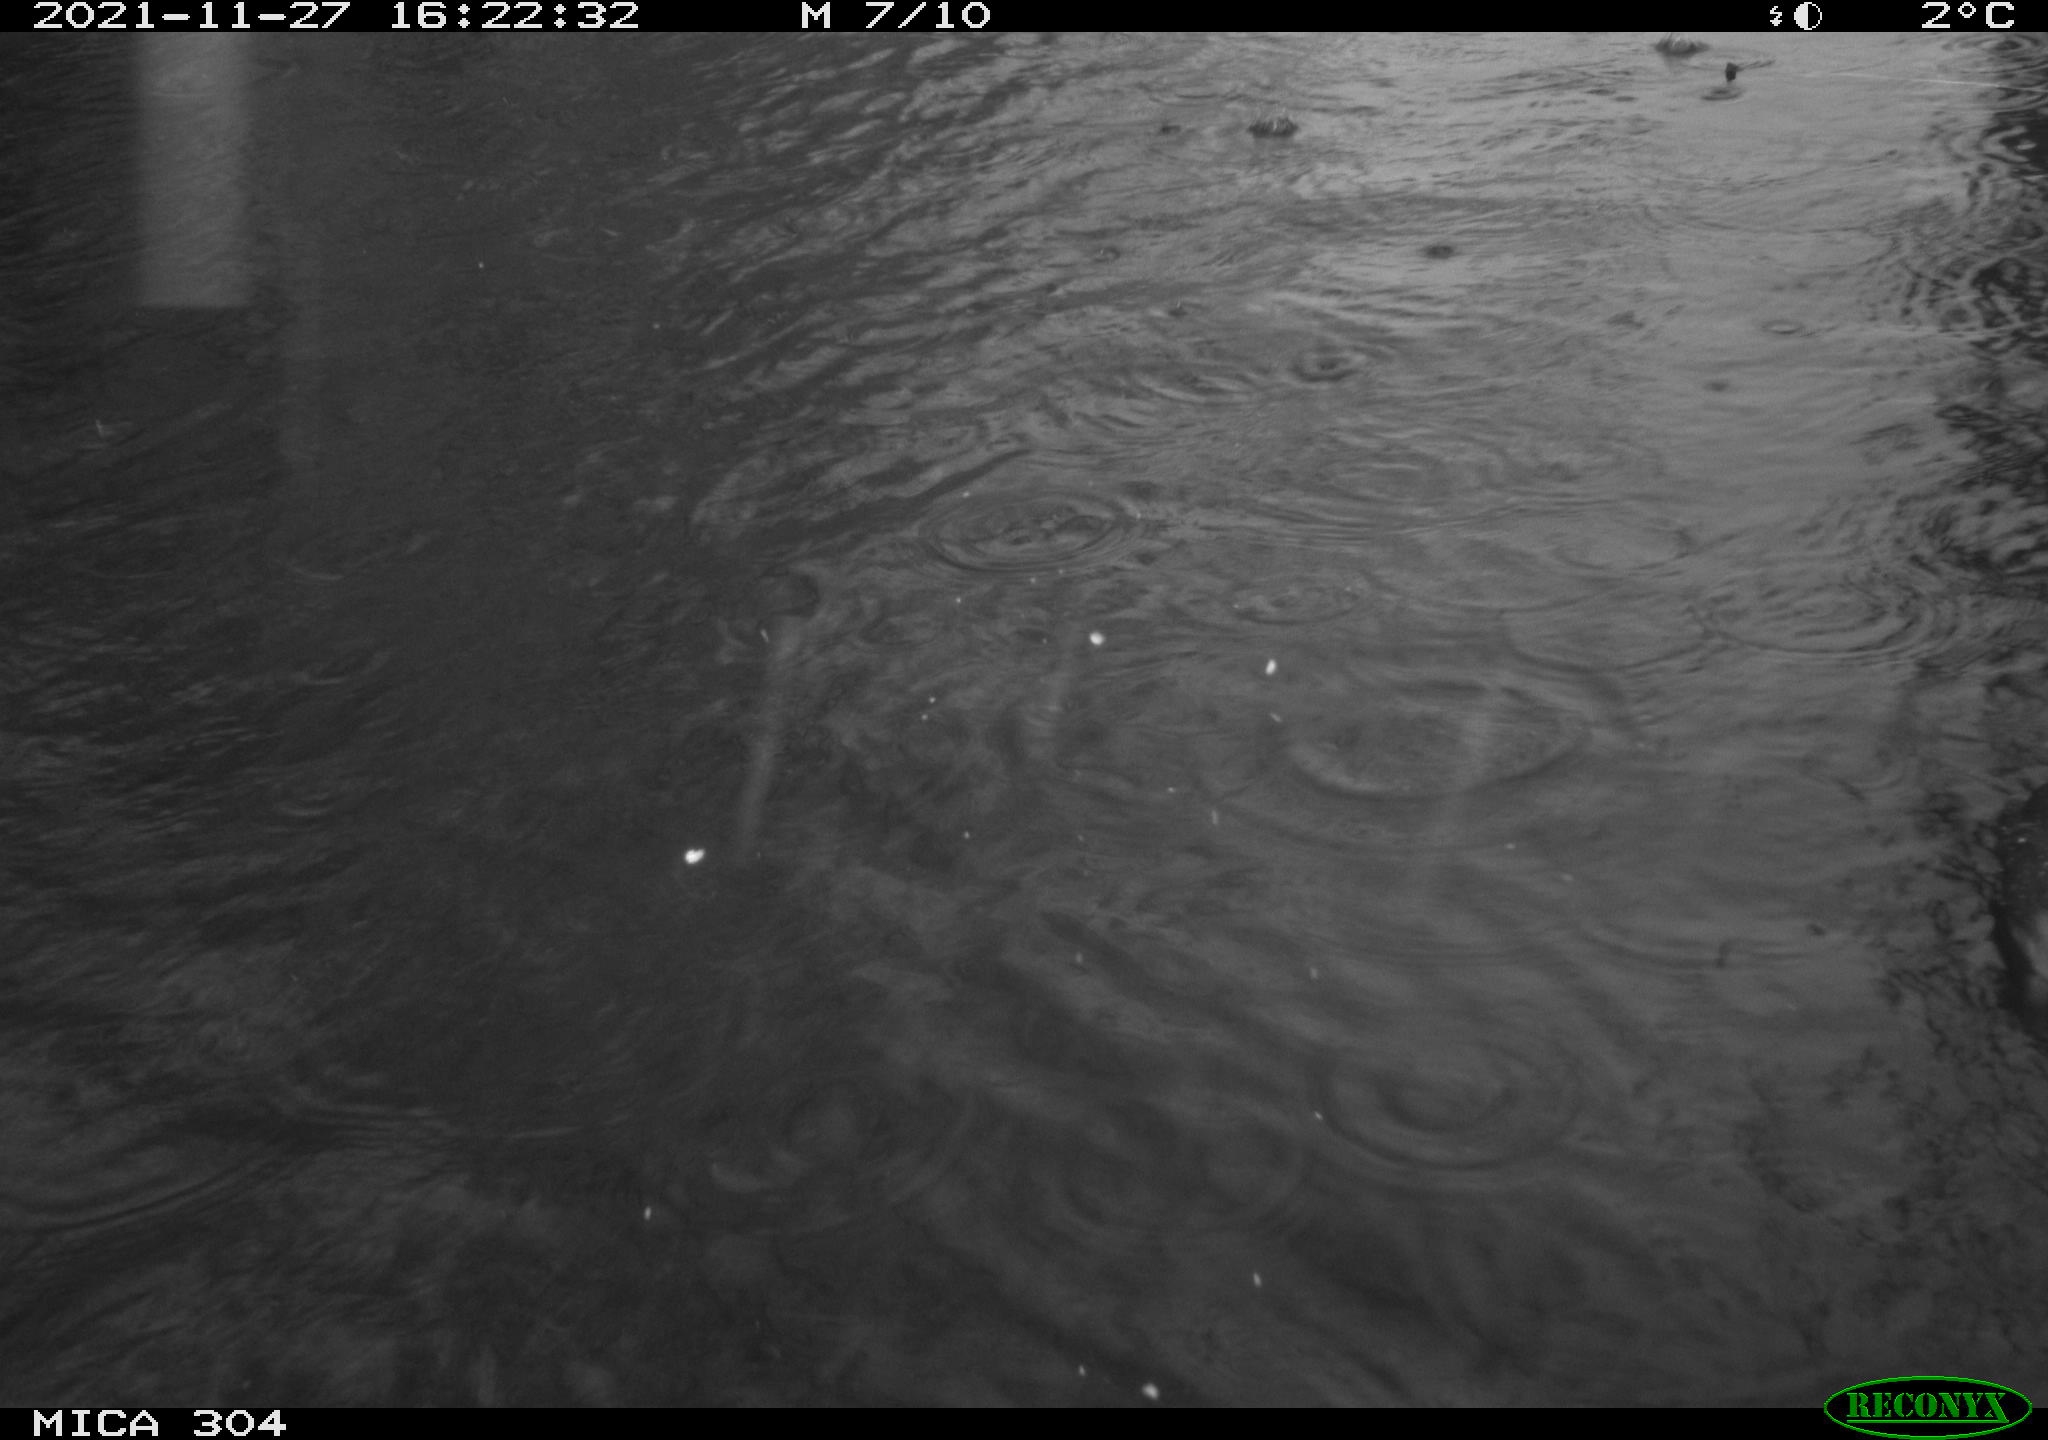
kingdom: Animalia
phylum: Chordata
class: Aves
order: Gruiformes
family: Rallidae
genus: Fulica
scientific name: Fulica atra
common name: Eurasian coot
